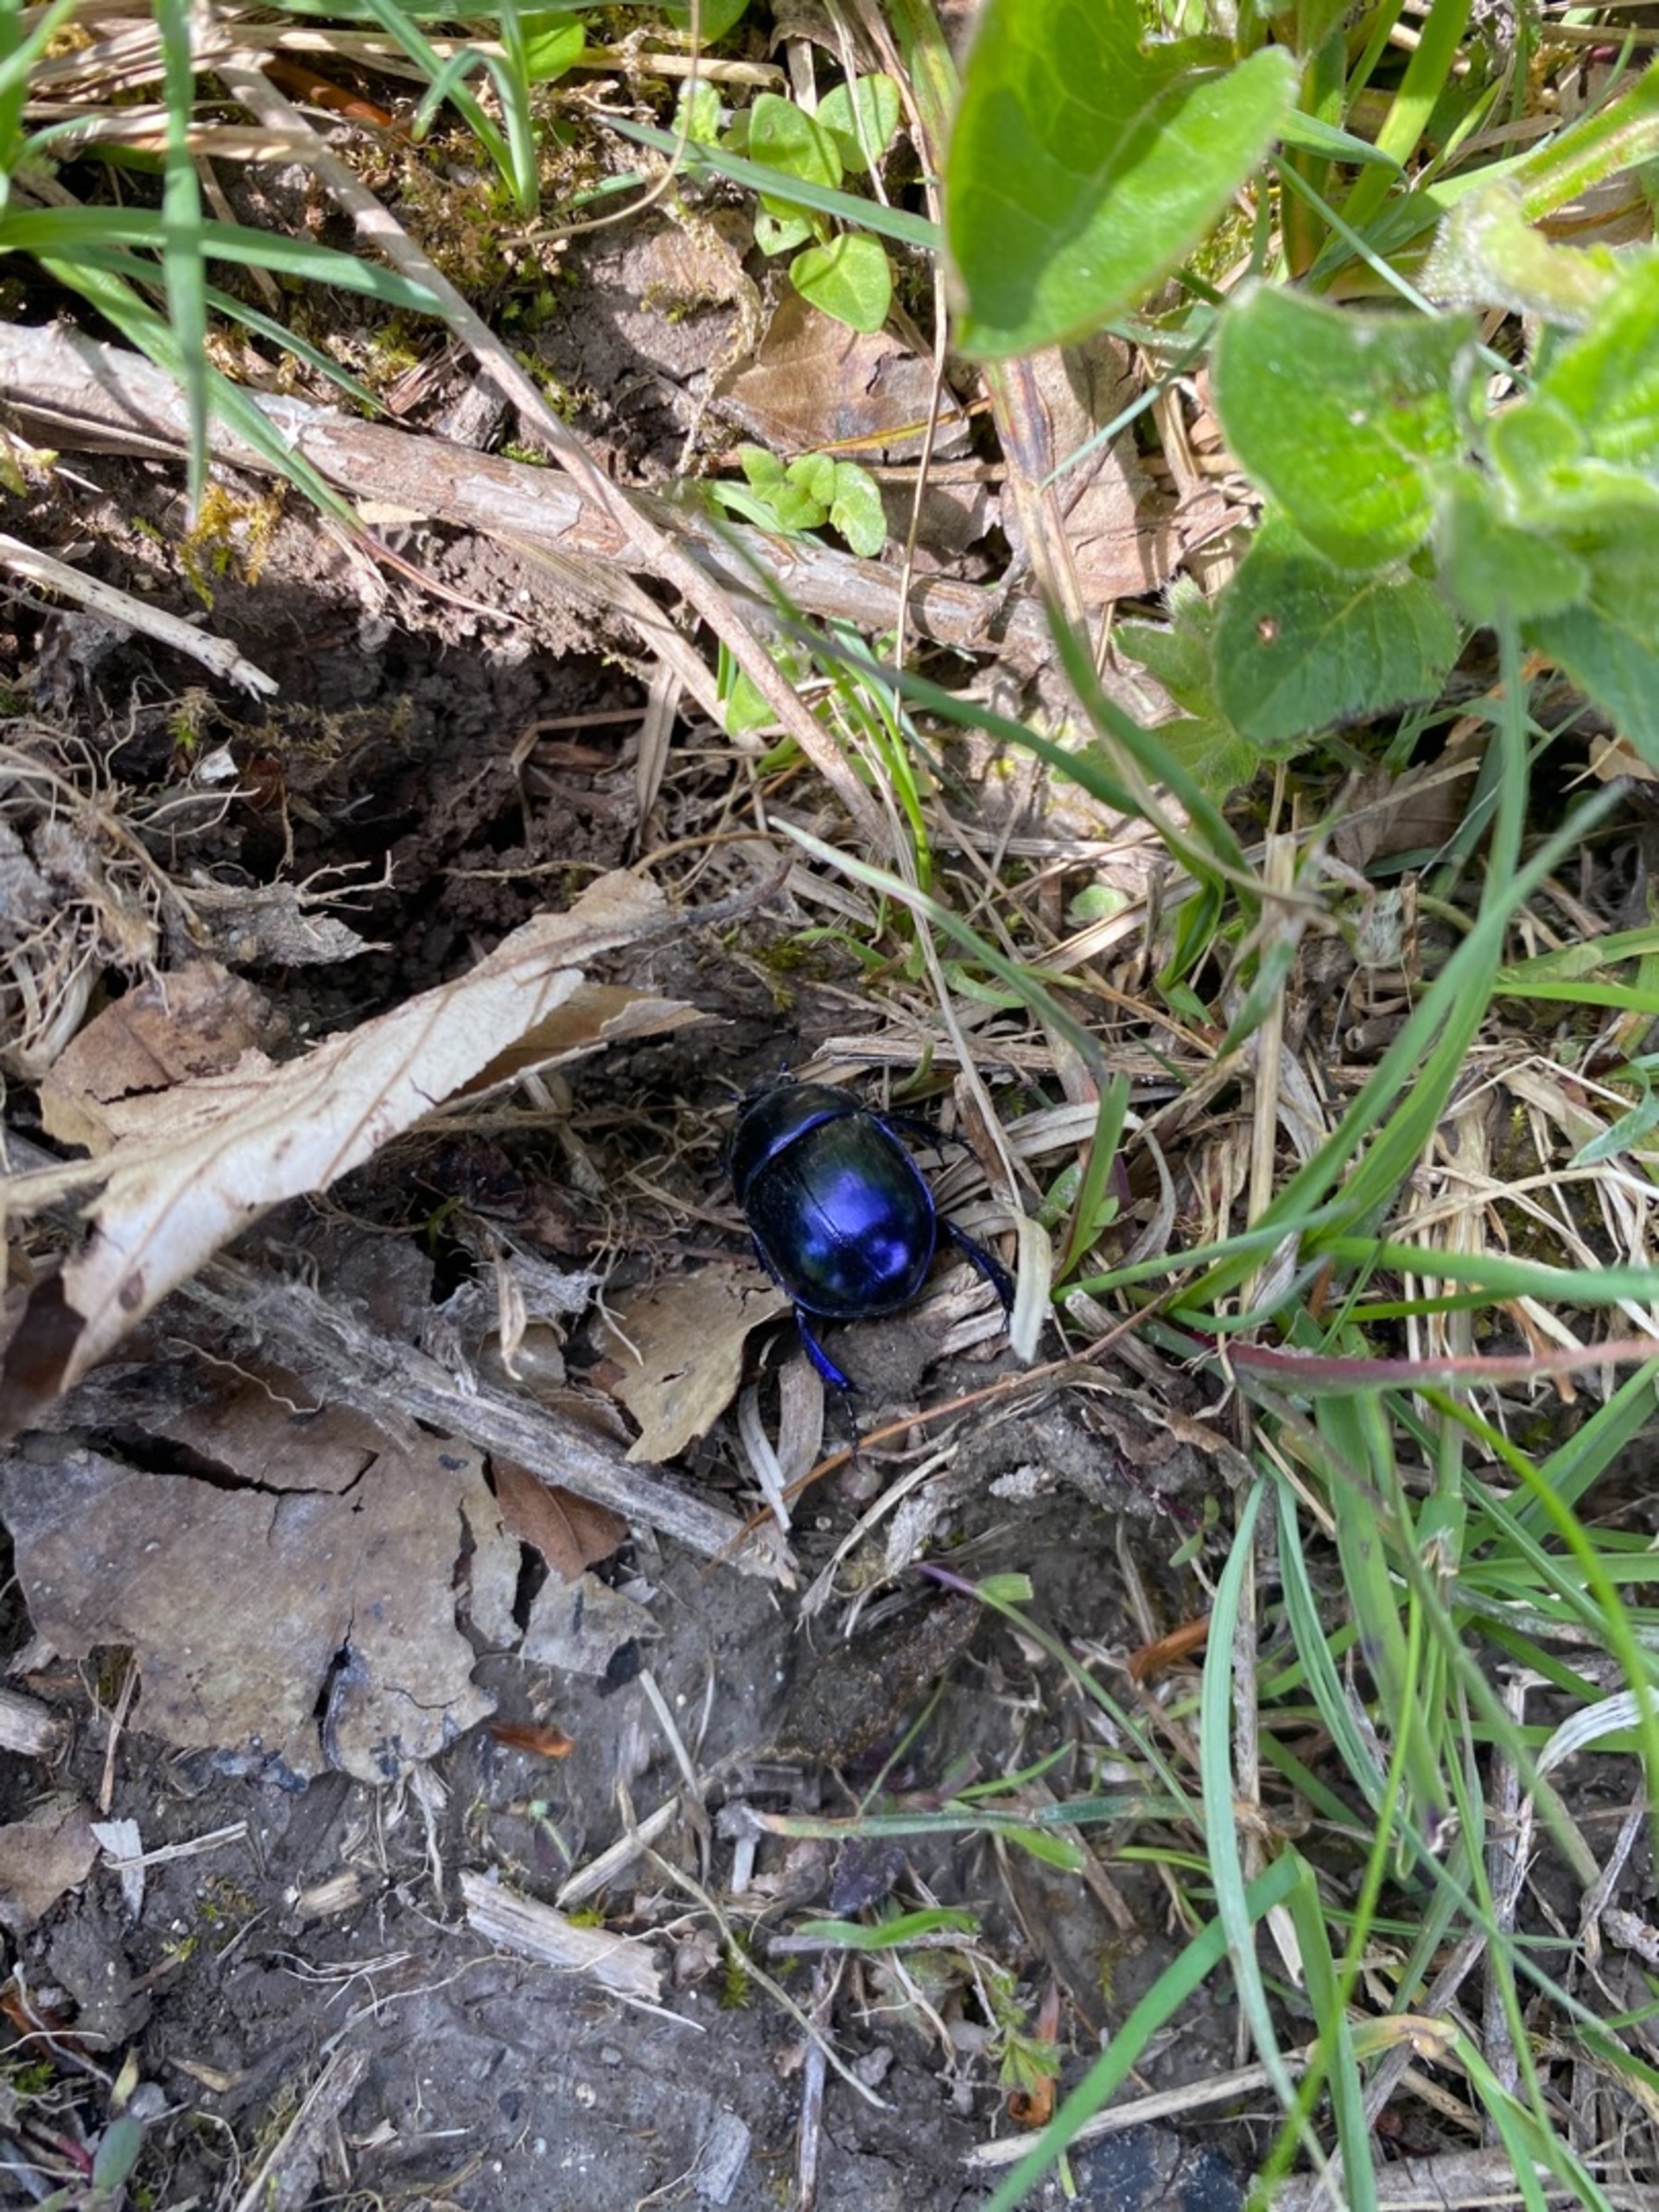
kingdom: Animalia
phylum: Arthropoda
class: Insecta
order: Coleoptera
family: Geotrupidae
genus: Trypocopris
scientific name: Trypocopris vernalis
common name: Glat skarnbasse
